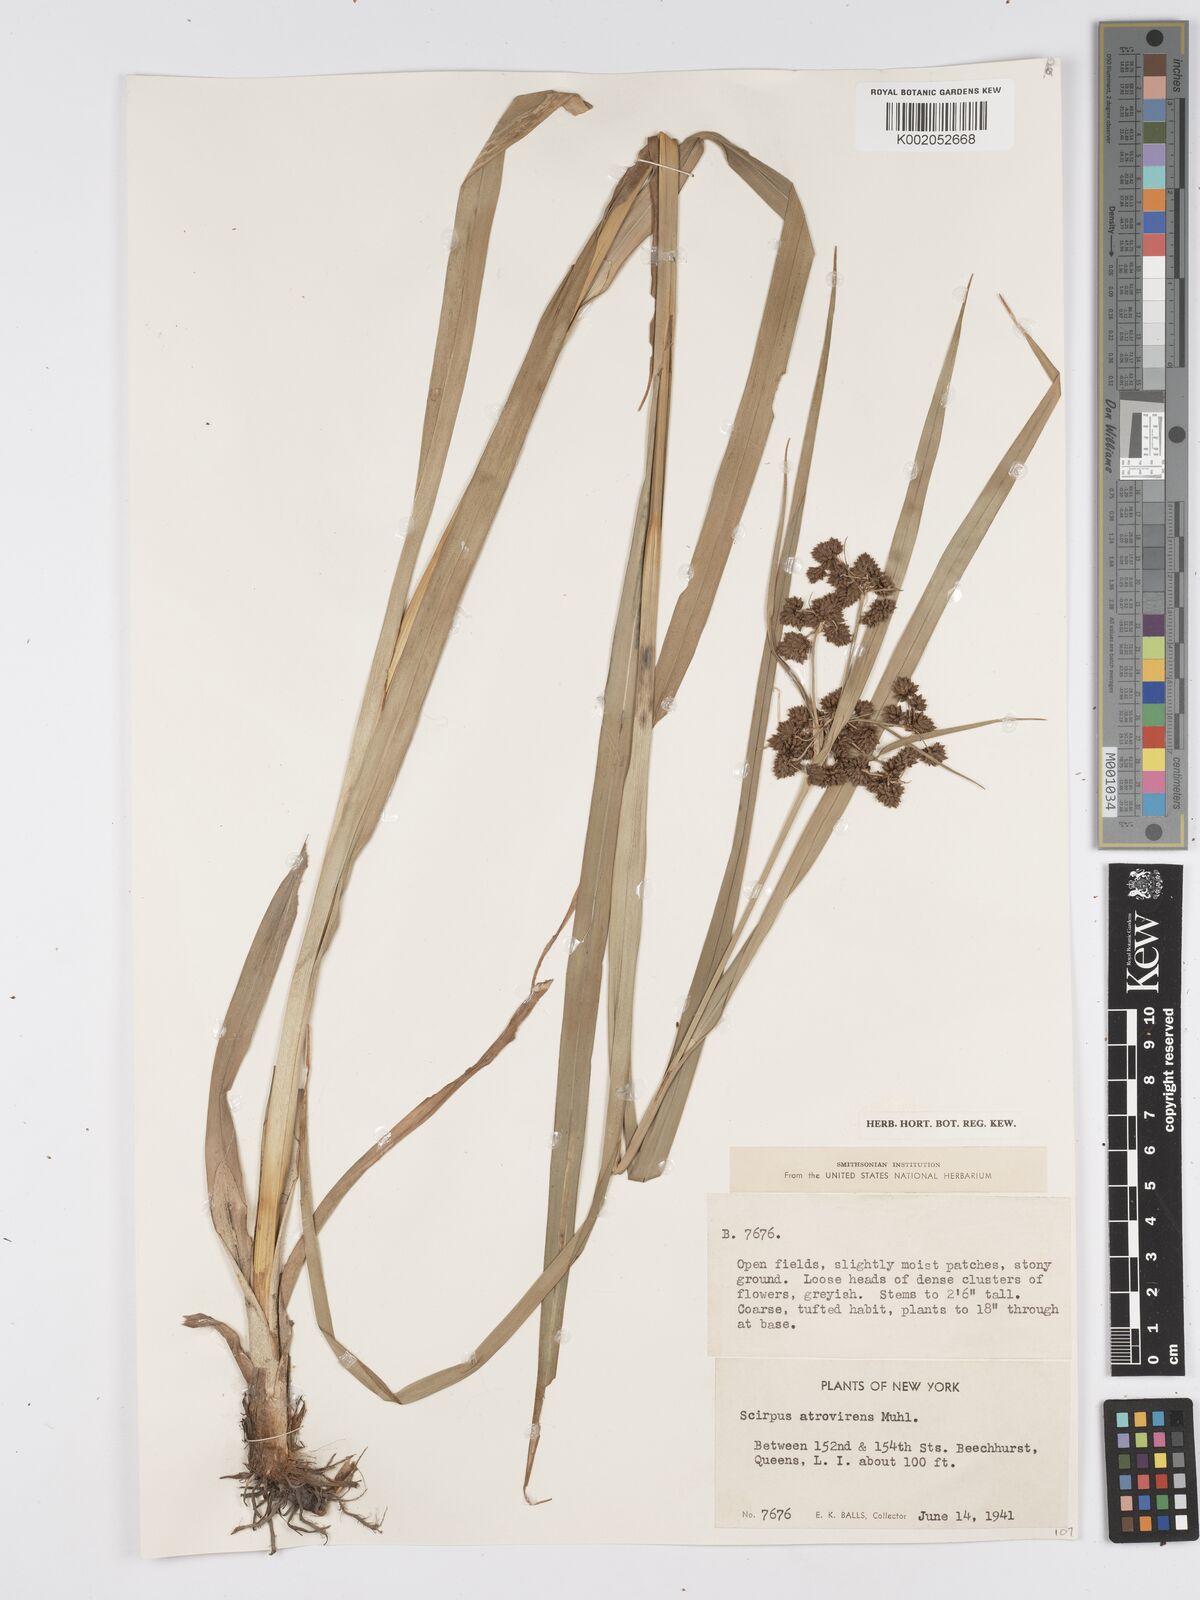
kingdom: Plantae
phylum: Tracheophyta
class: Liliopsida
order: Poales
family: Cyperaceae
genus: Scirpus
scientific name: Scirpus atrovirens
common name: Black bulrush
